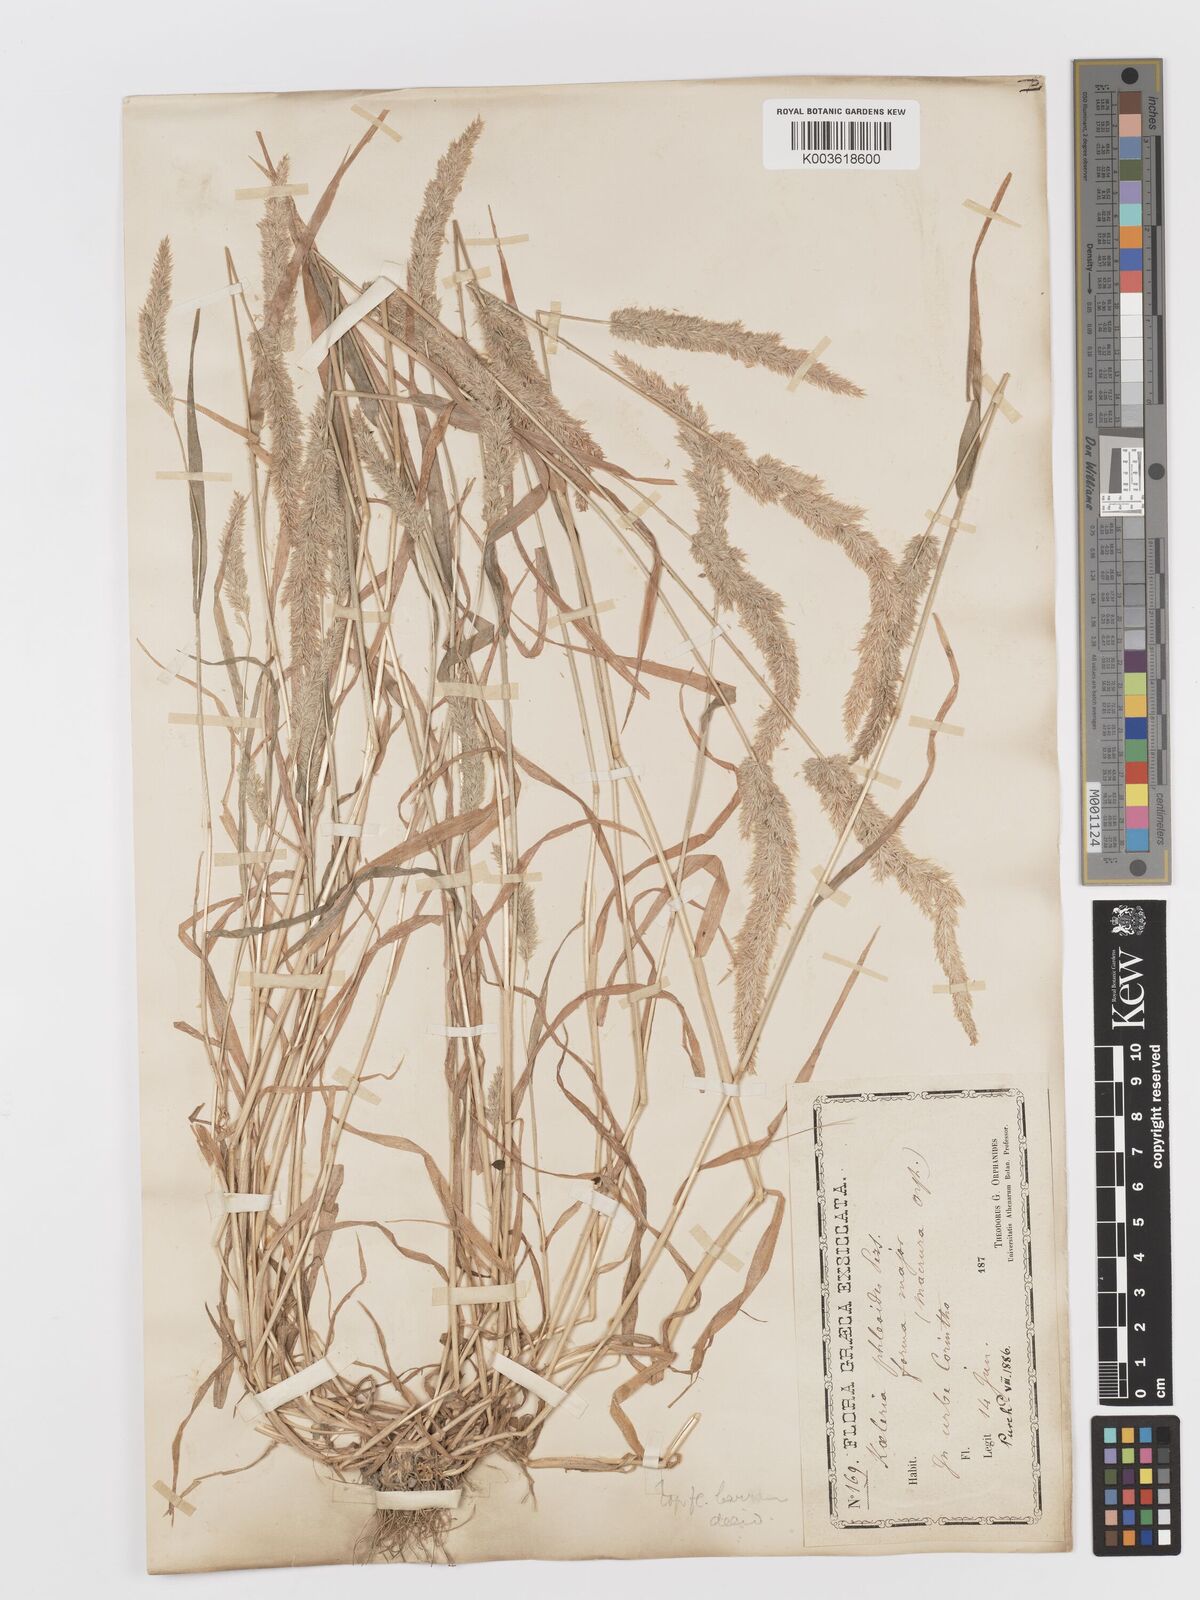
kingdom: Plantae
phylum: Tracheophyta
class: Liliopsida
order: Poales
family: Poaceae
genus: Rostraria
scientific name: Rostraria cristata
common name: Mediterranean hair-grass
